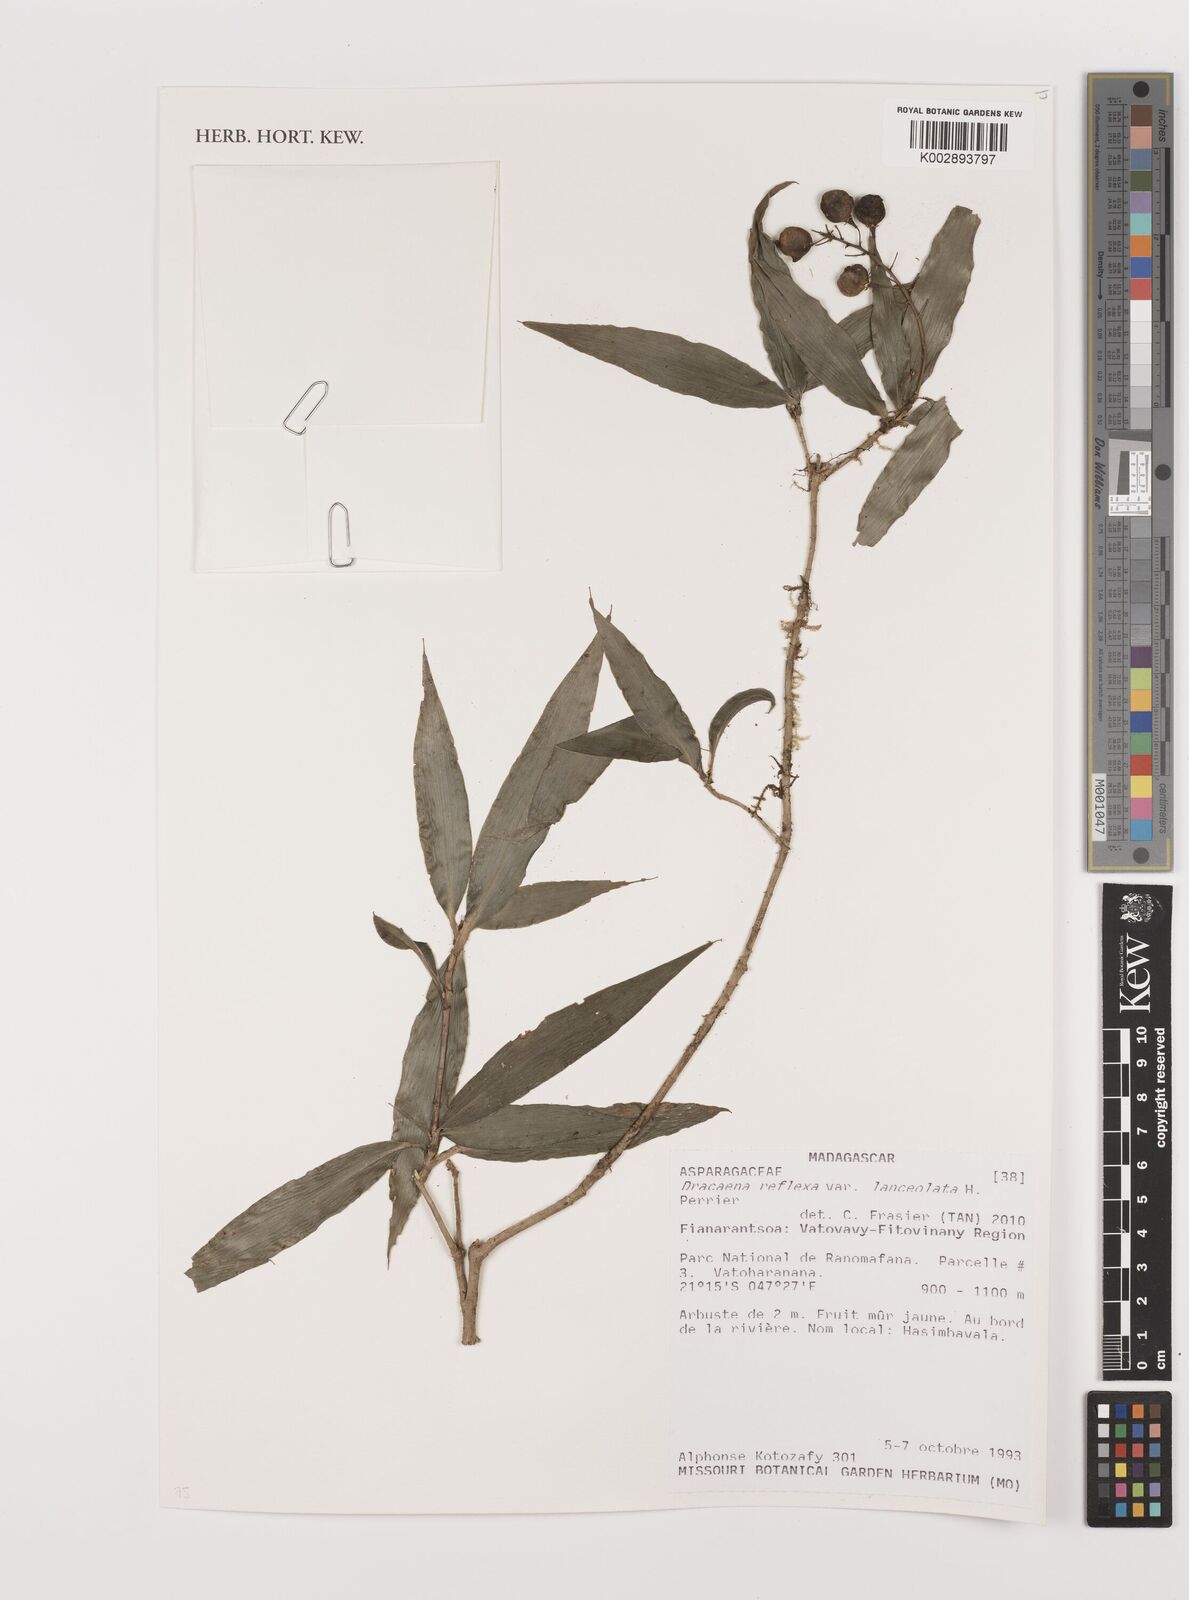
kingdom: Plantae
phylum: Tracheophyta
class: Liliopsida
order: Asparagales
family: Asparagaceae
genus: Dracaena
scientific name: Dracaena reflexa
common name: Song-of-india
